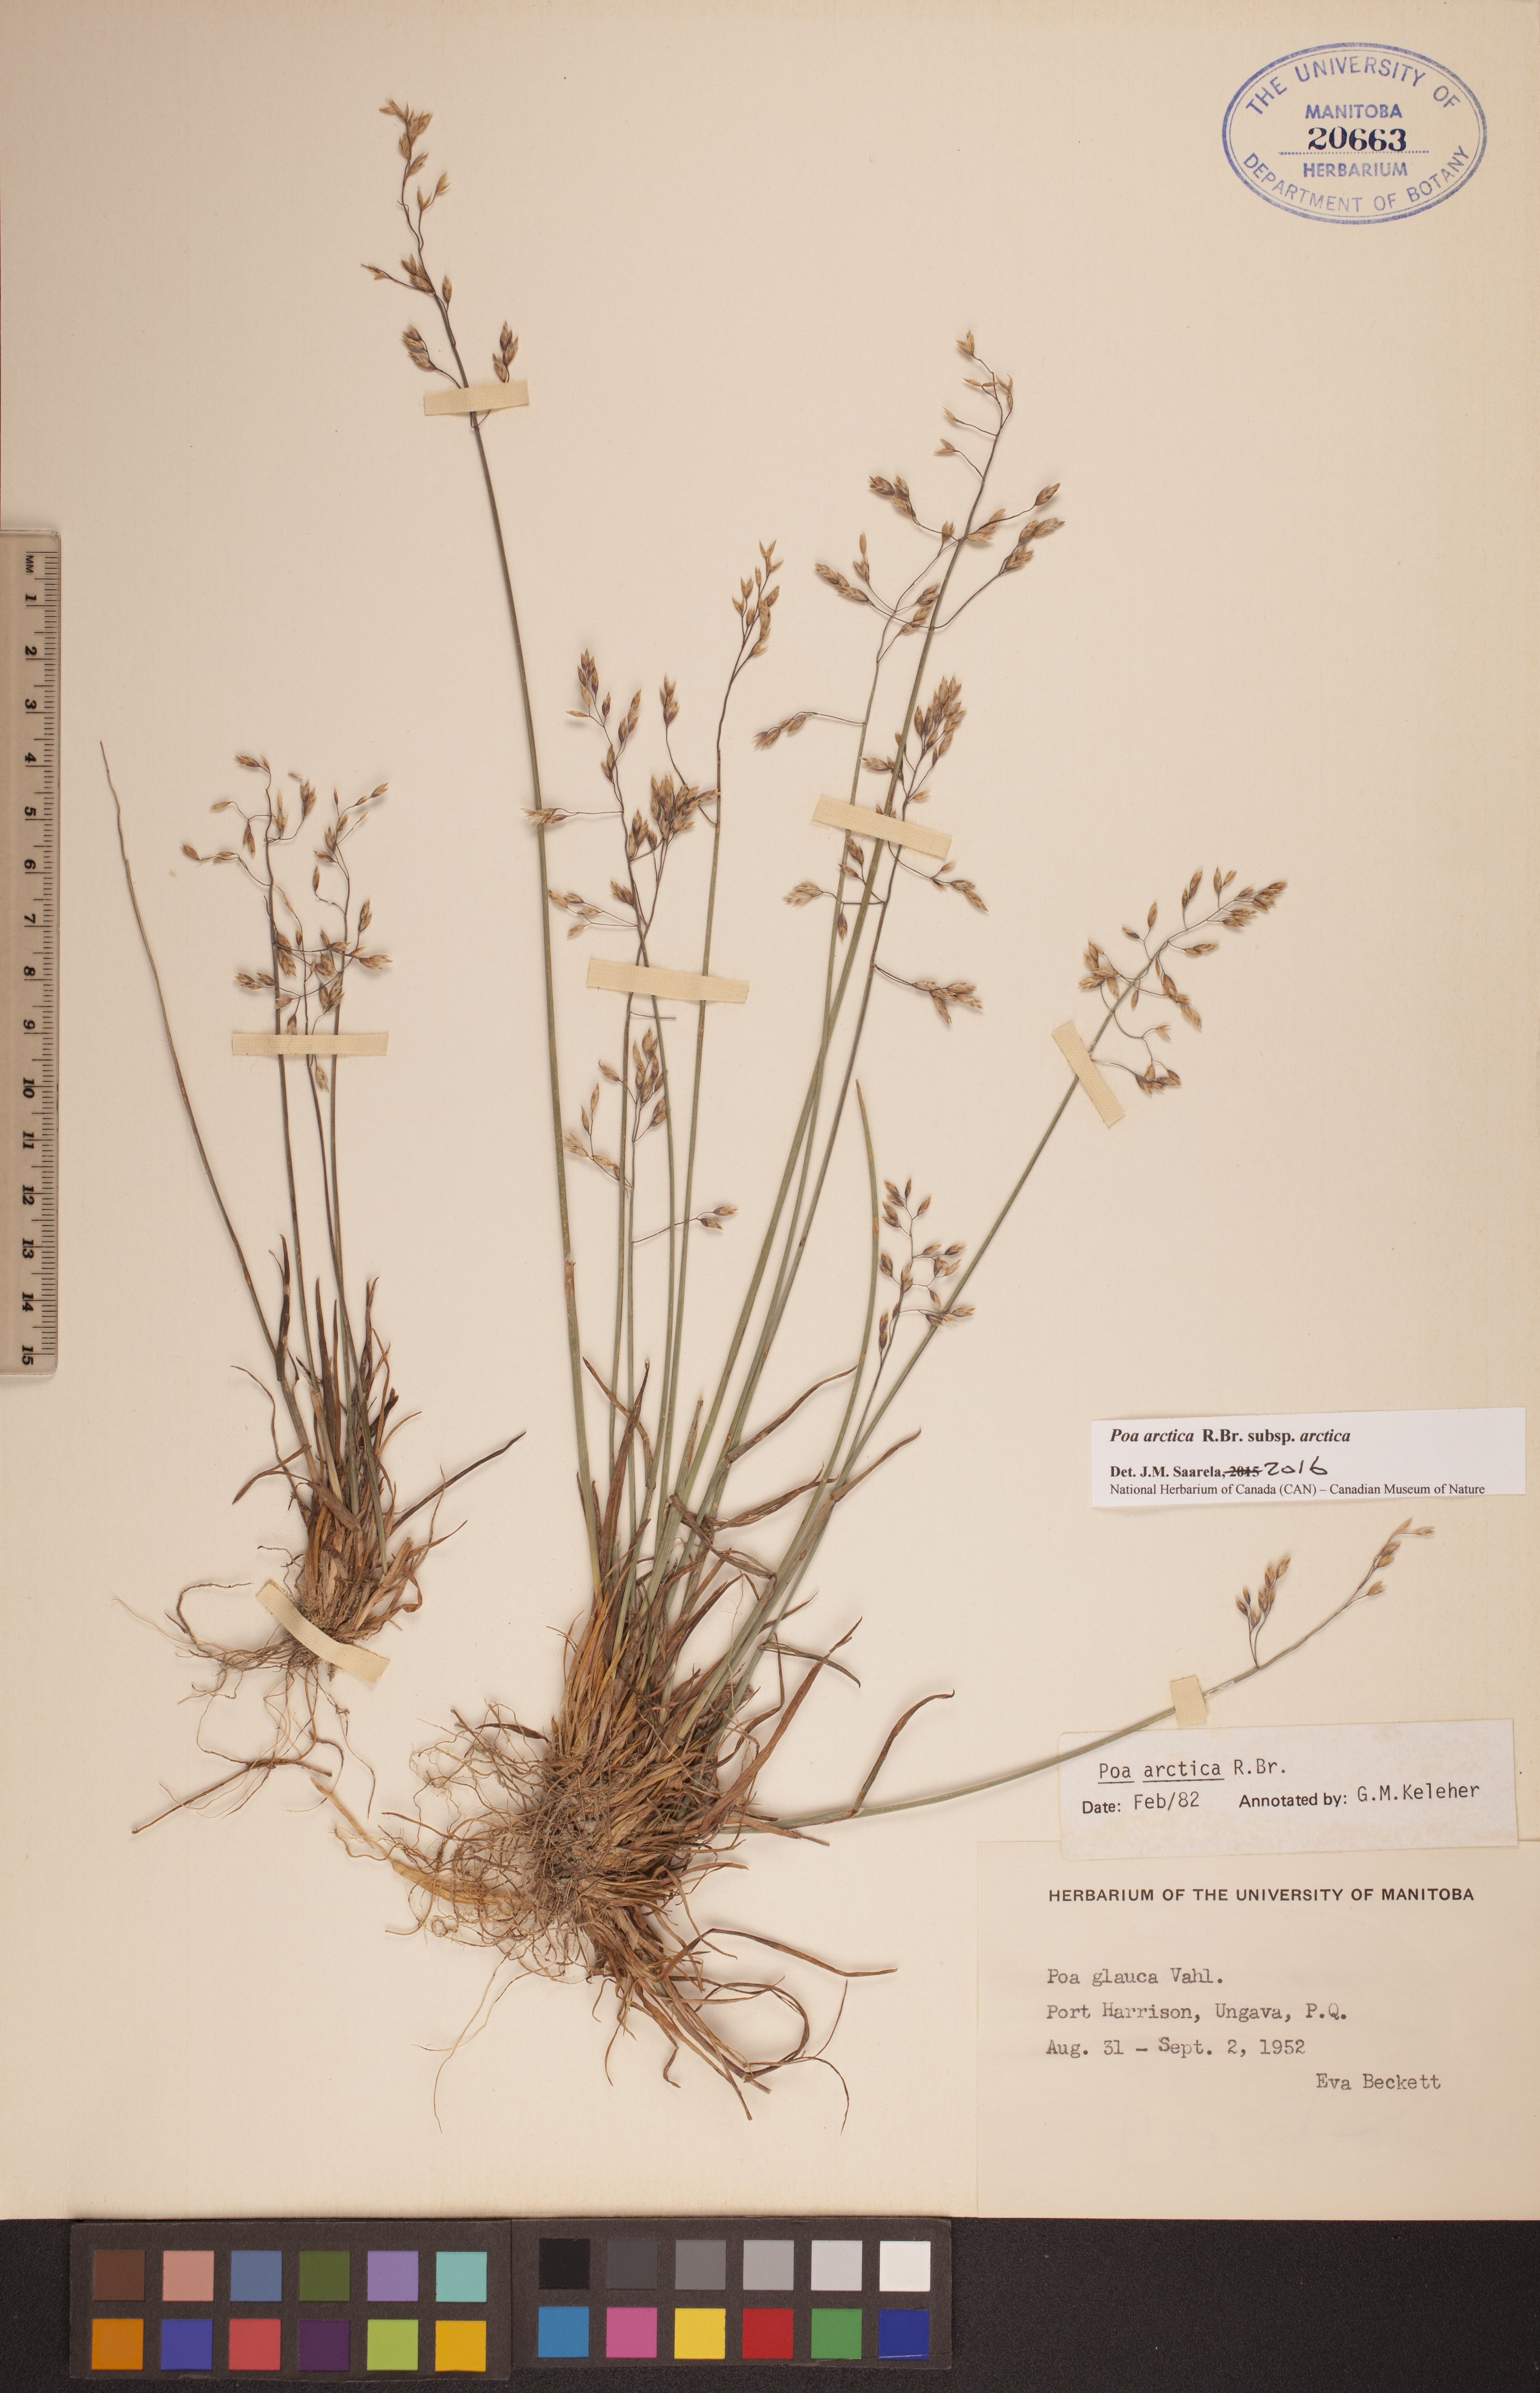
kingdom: Plantae
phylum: Tracheophyta
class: Liliopsida
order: Poales
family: Poaceae
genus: Poa
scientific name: Poa arctica
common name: Arctic bluegrass
